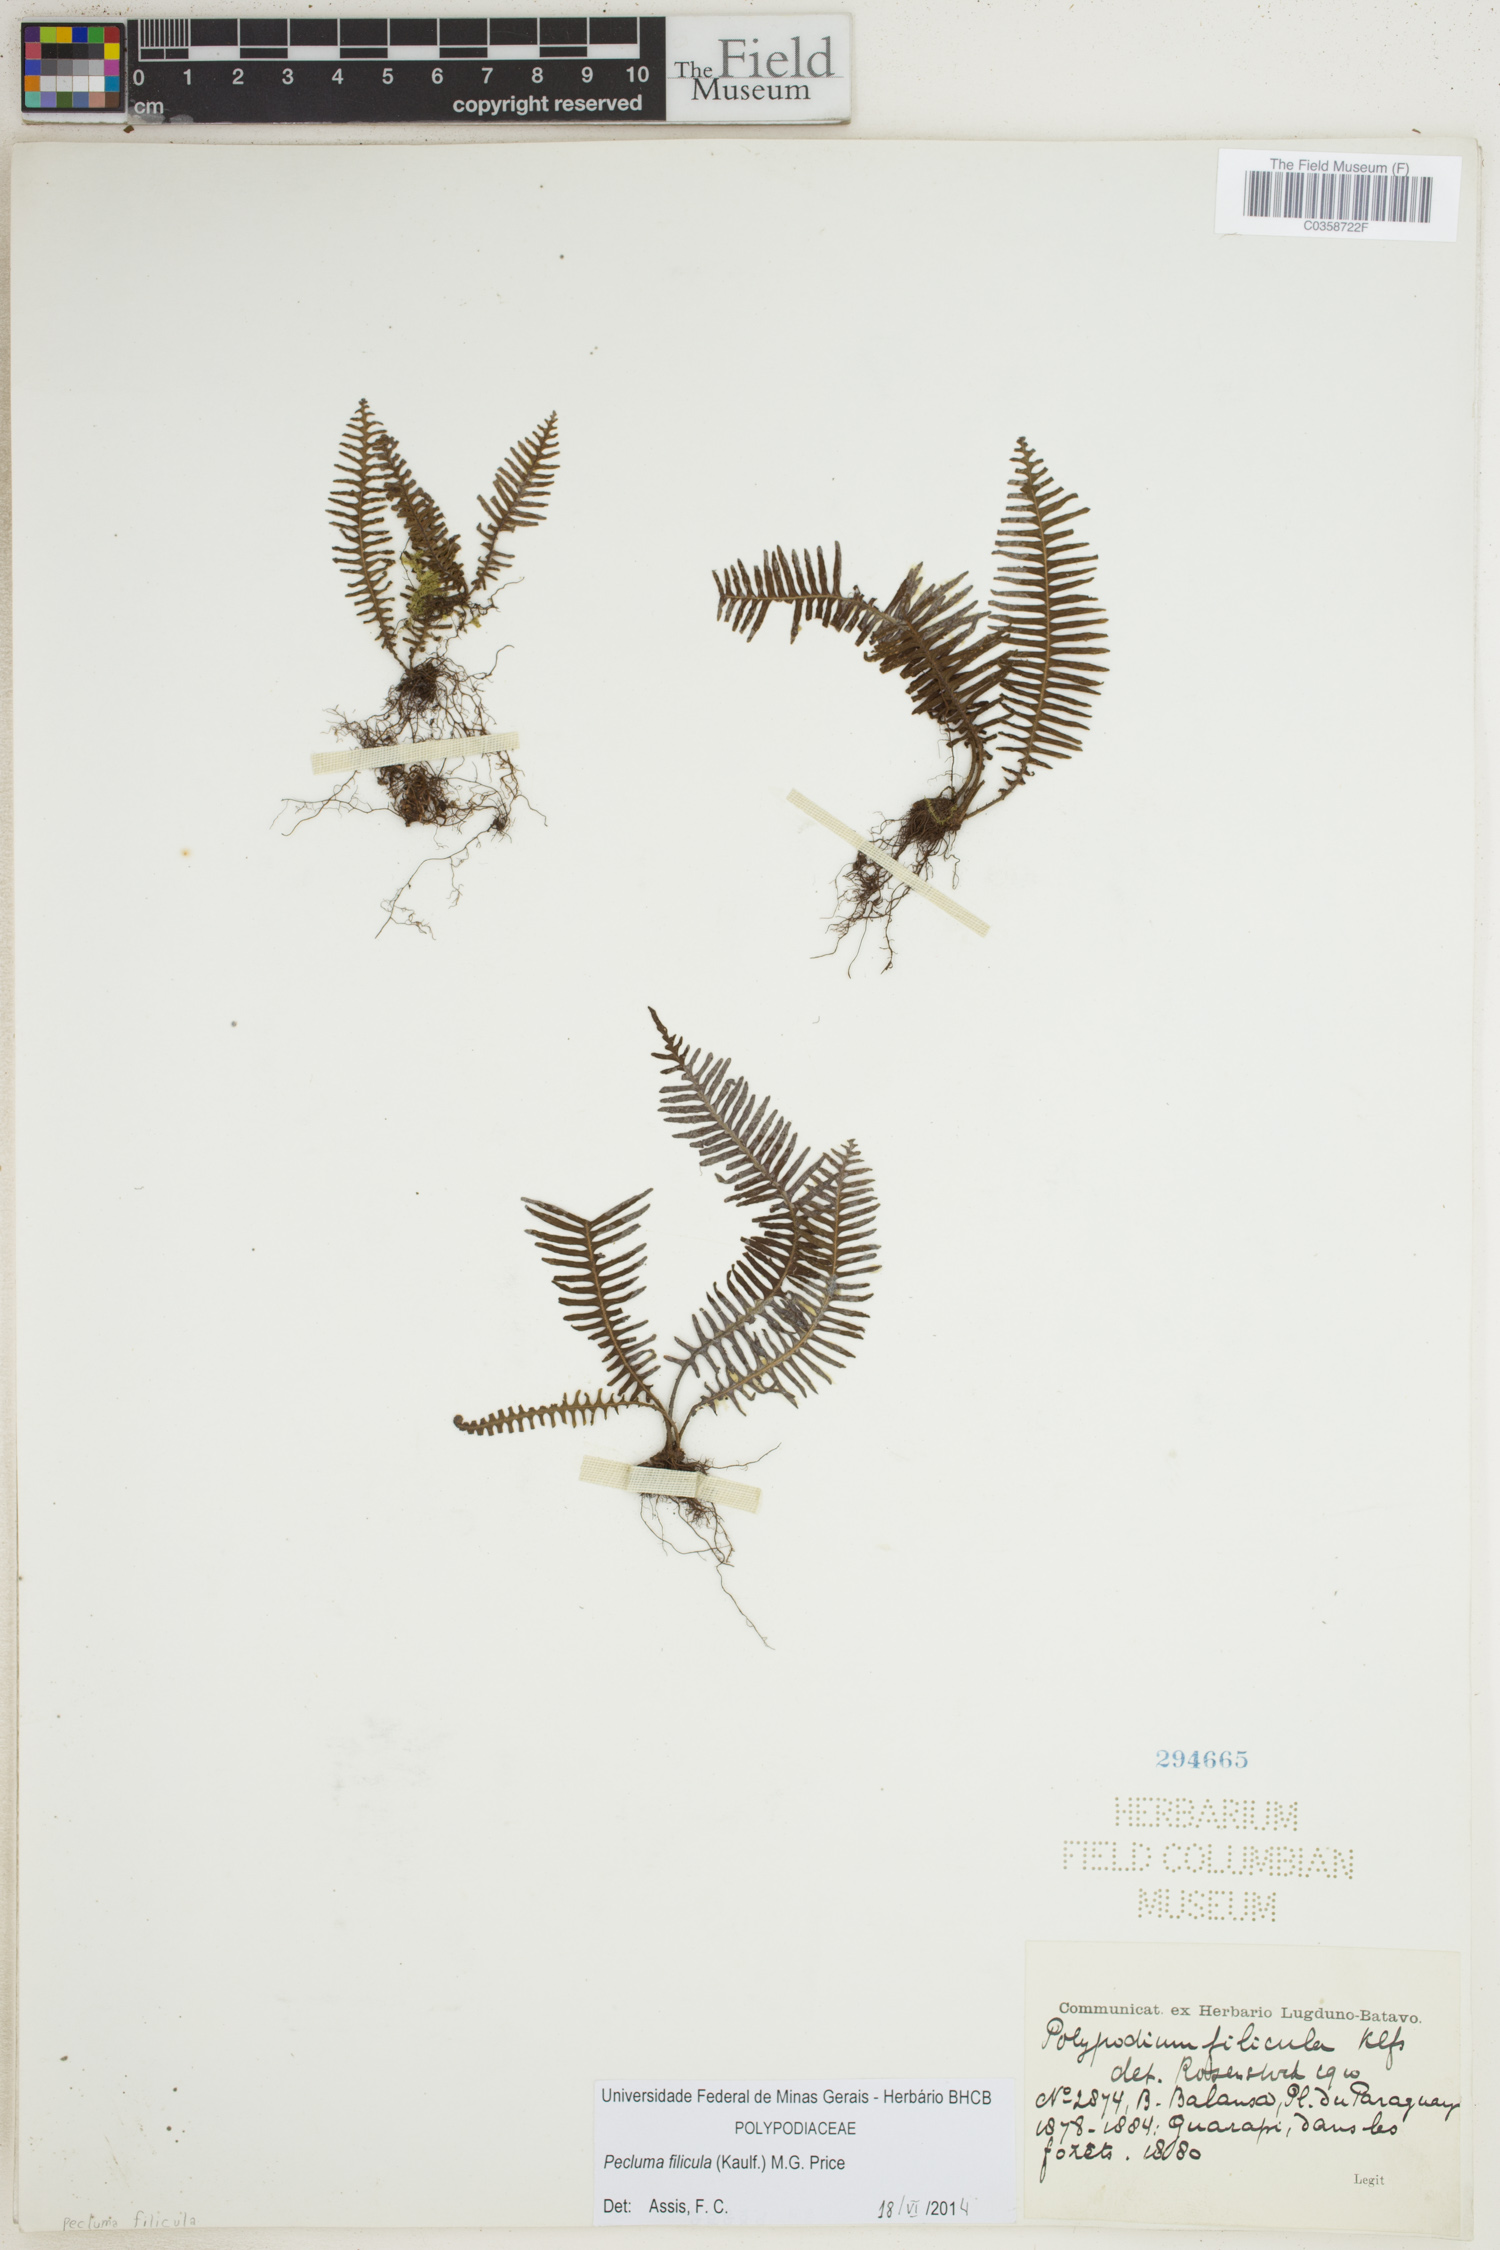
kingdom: Plantae
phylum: Tracheophyta
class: Polypodiopsida
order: Polypodiales
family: Polypodiaceae
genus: Pecluma
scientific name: Pecluma filicula
